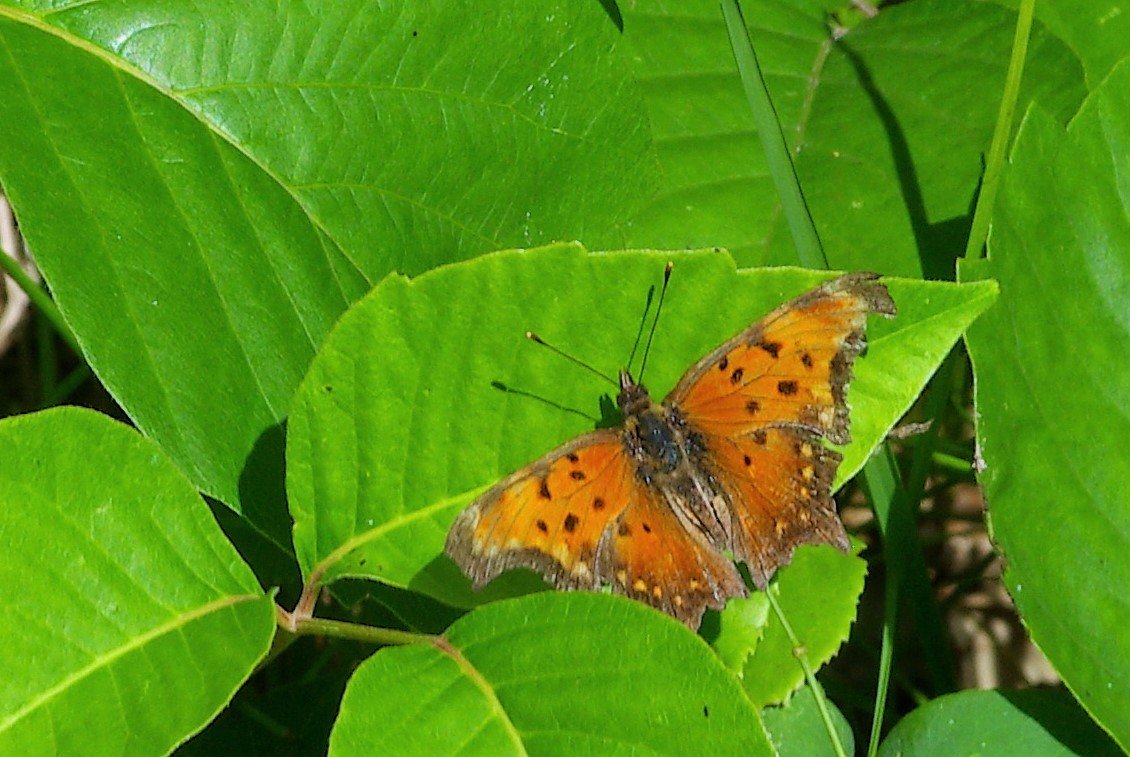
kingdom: Animalia
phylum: Arthropoda
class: Insecta
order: Lepidoptera
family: Nymphalidae
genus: Polygonia
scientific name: Polygonia progne
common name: Gray Comma
